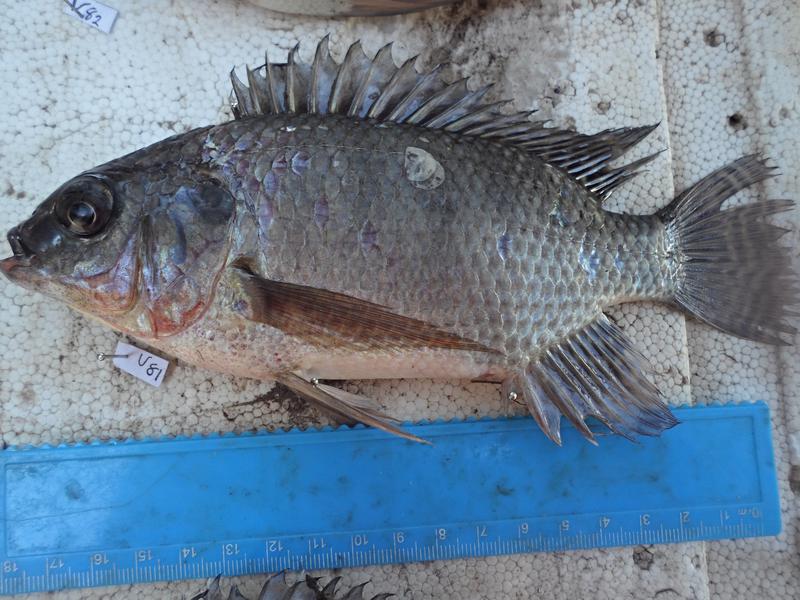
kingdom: Animalia
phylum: Chordata
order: Perciformes
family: Cichlidae
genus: Oreochromis
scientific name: Oreochromis niloticus
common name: Nile tilapia
